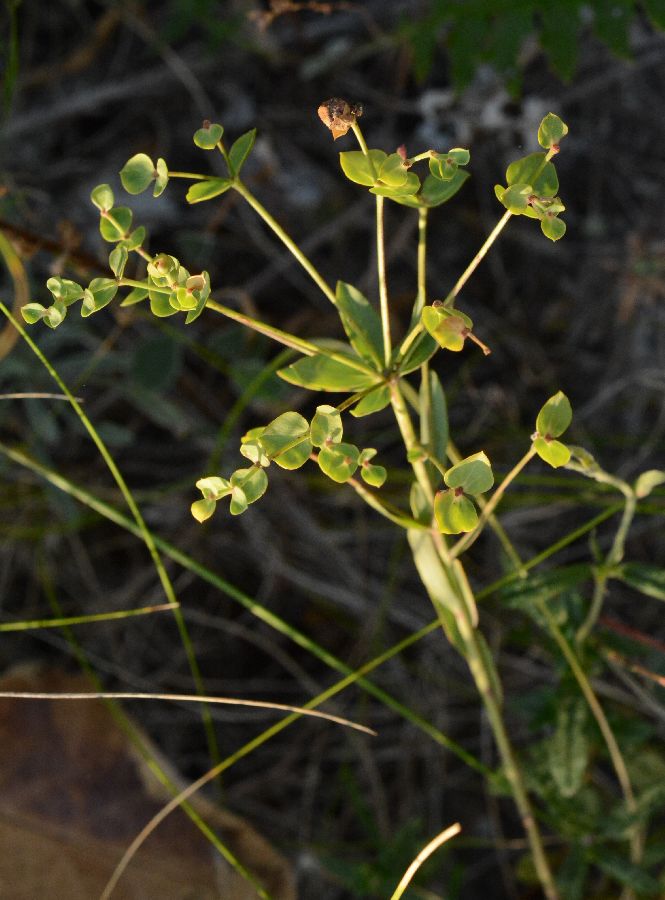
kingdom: Plantae
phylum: Tracheophyta
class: Magnoliopsida
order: Malpighiales
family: Euphorbiaceae
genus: Euphorbia
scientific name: Euphorbia seguieriana
